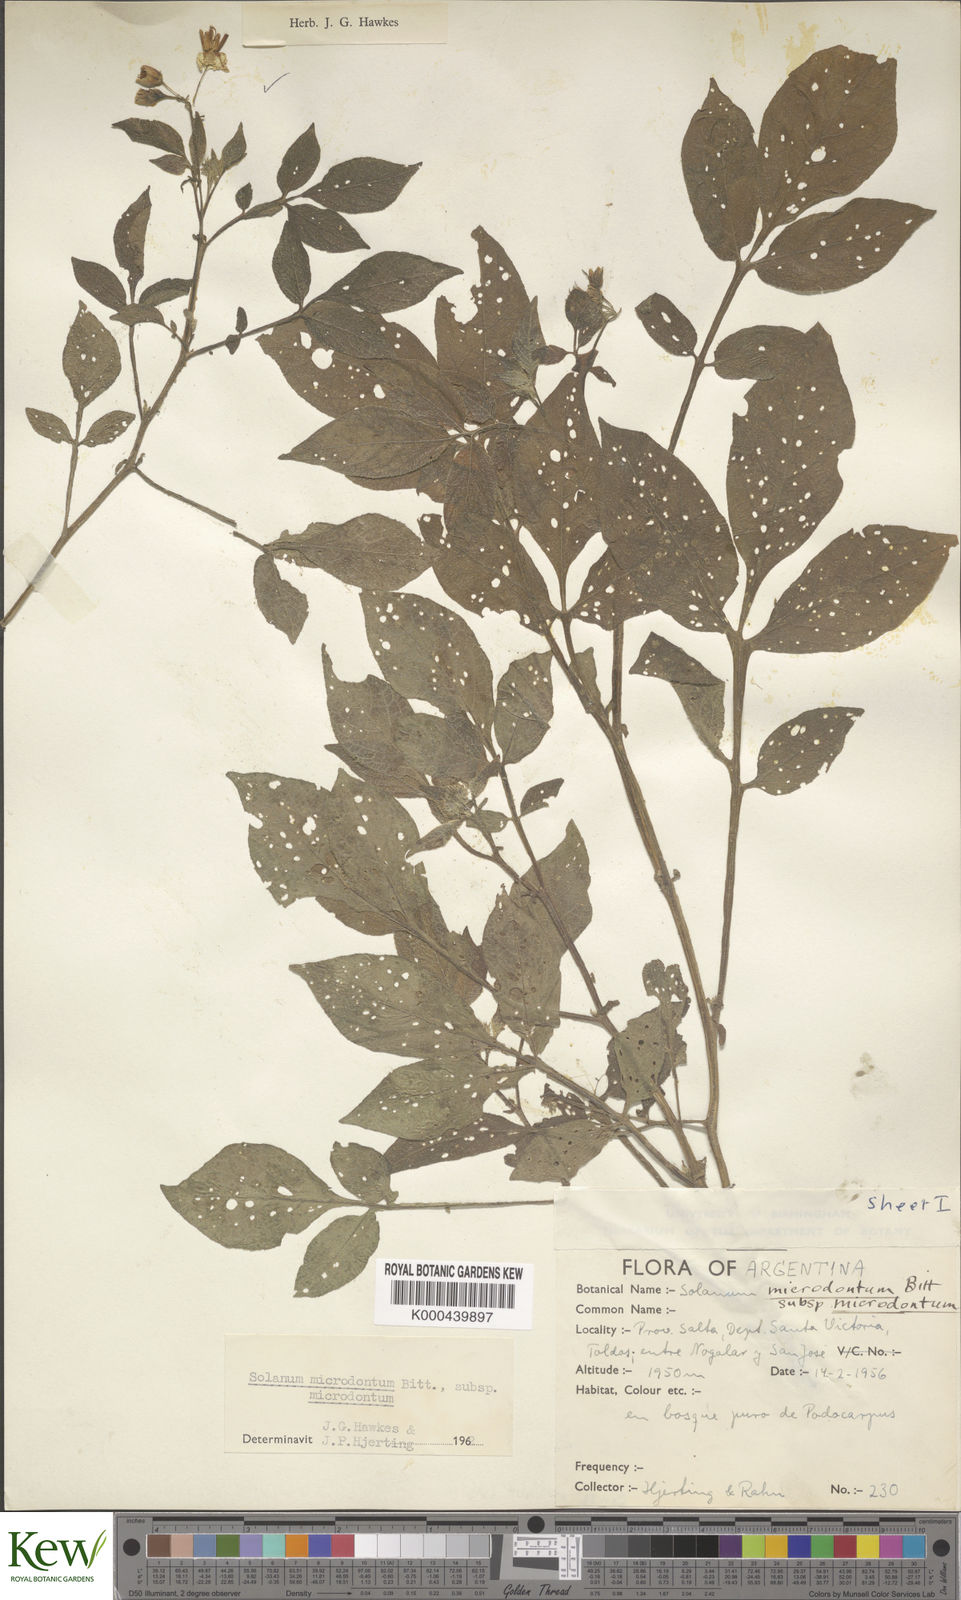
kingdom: Plantae
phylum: Tracheophyta
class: Magnoliopsida
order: Solanales
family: Solanaceae
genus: Solanum
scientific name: Solanum microdontum
